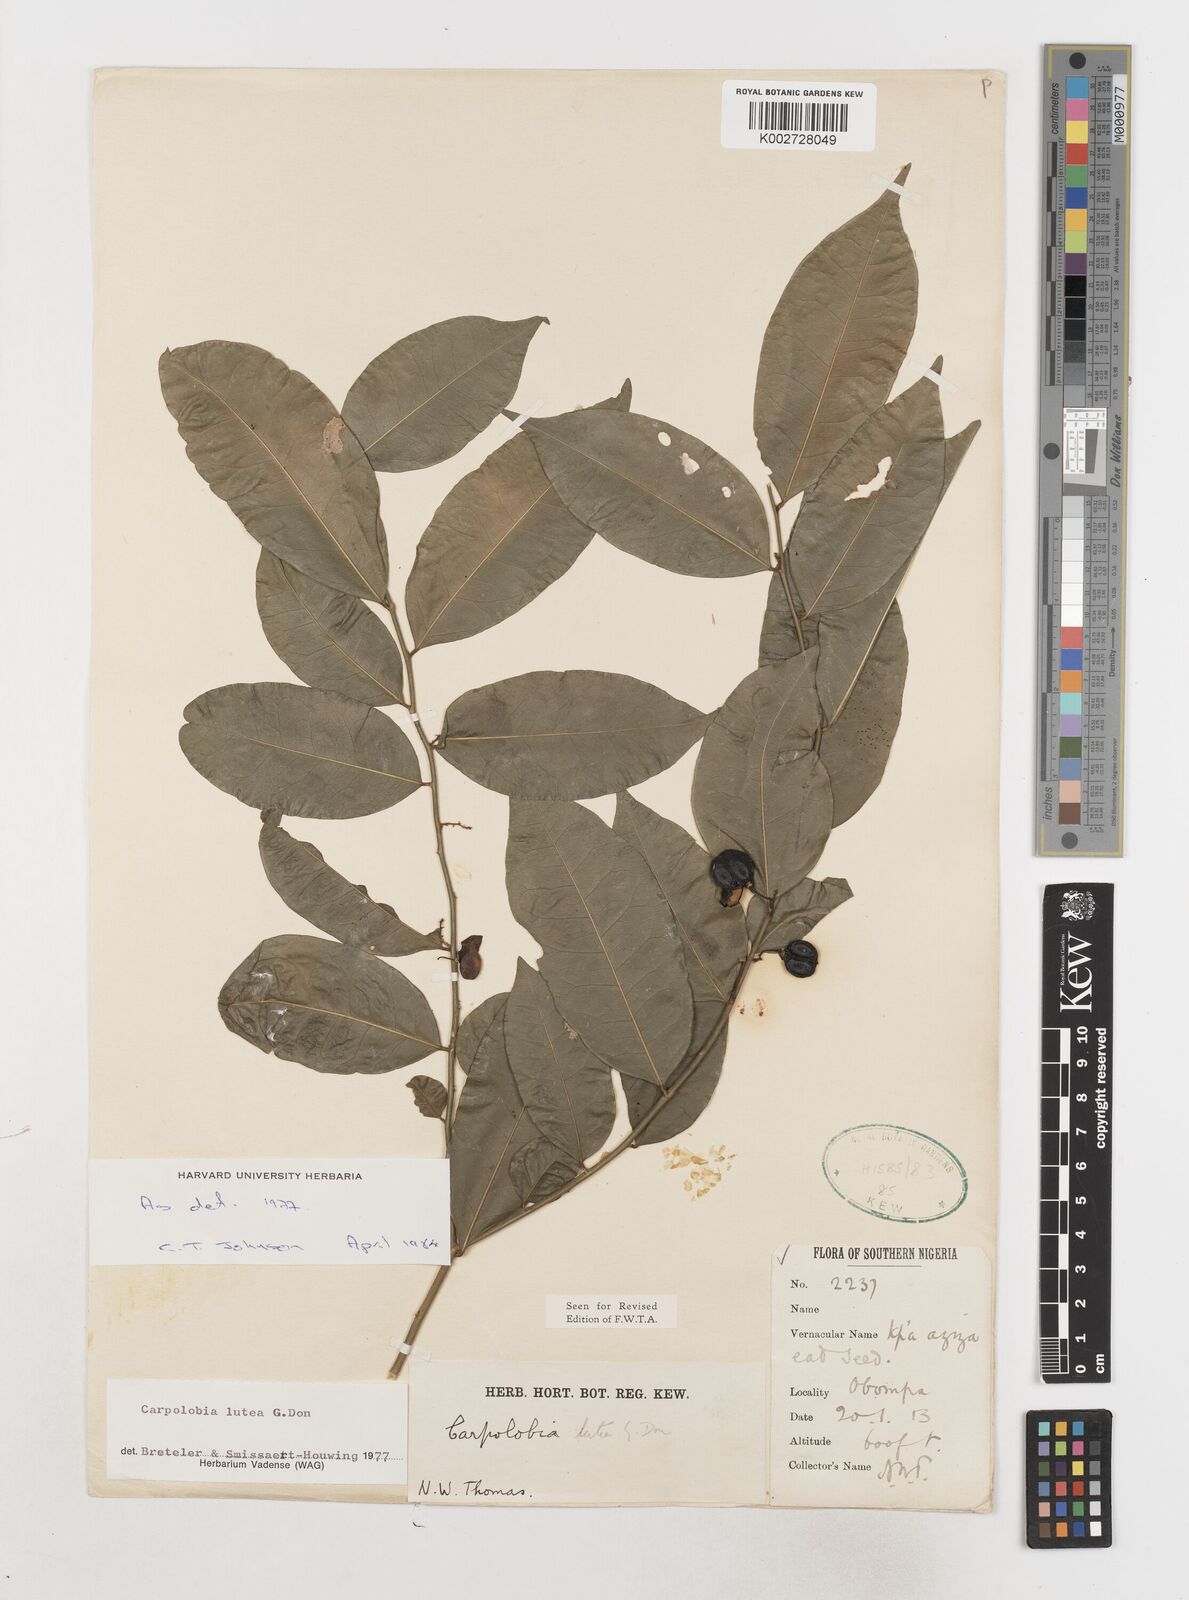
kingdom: Plantae
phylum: Tracheophyta
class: Magnoliopsida
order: Fabales
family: Polygalaceae
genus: Carpolobia
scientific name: Carpolobia lutea
